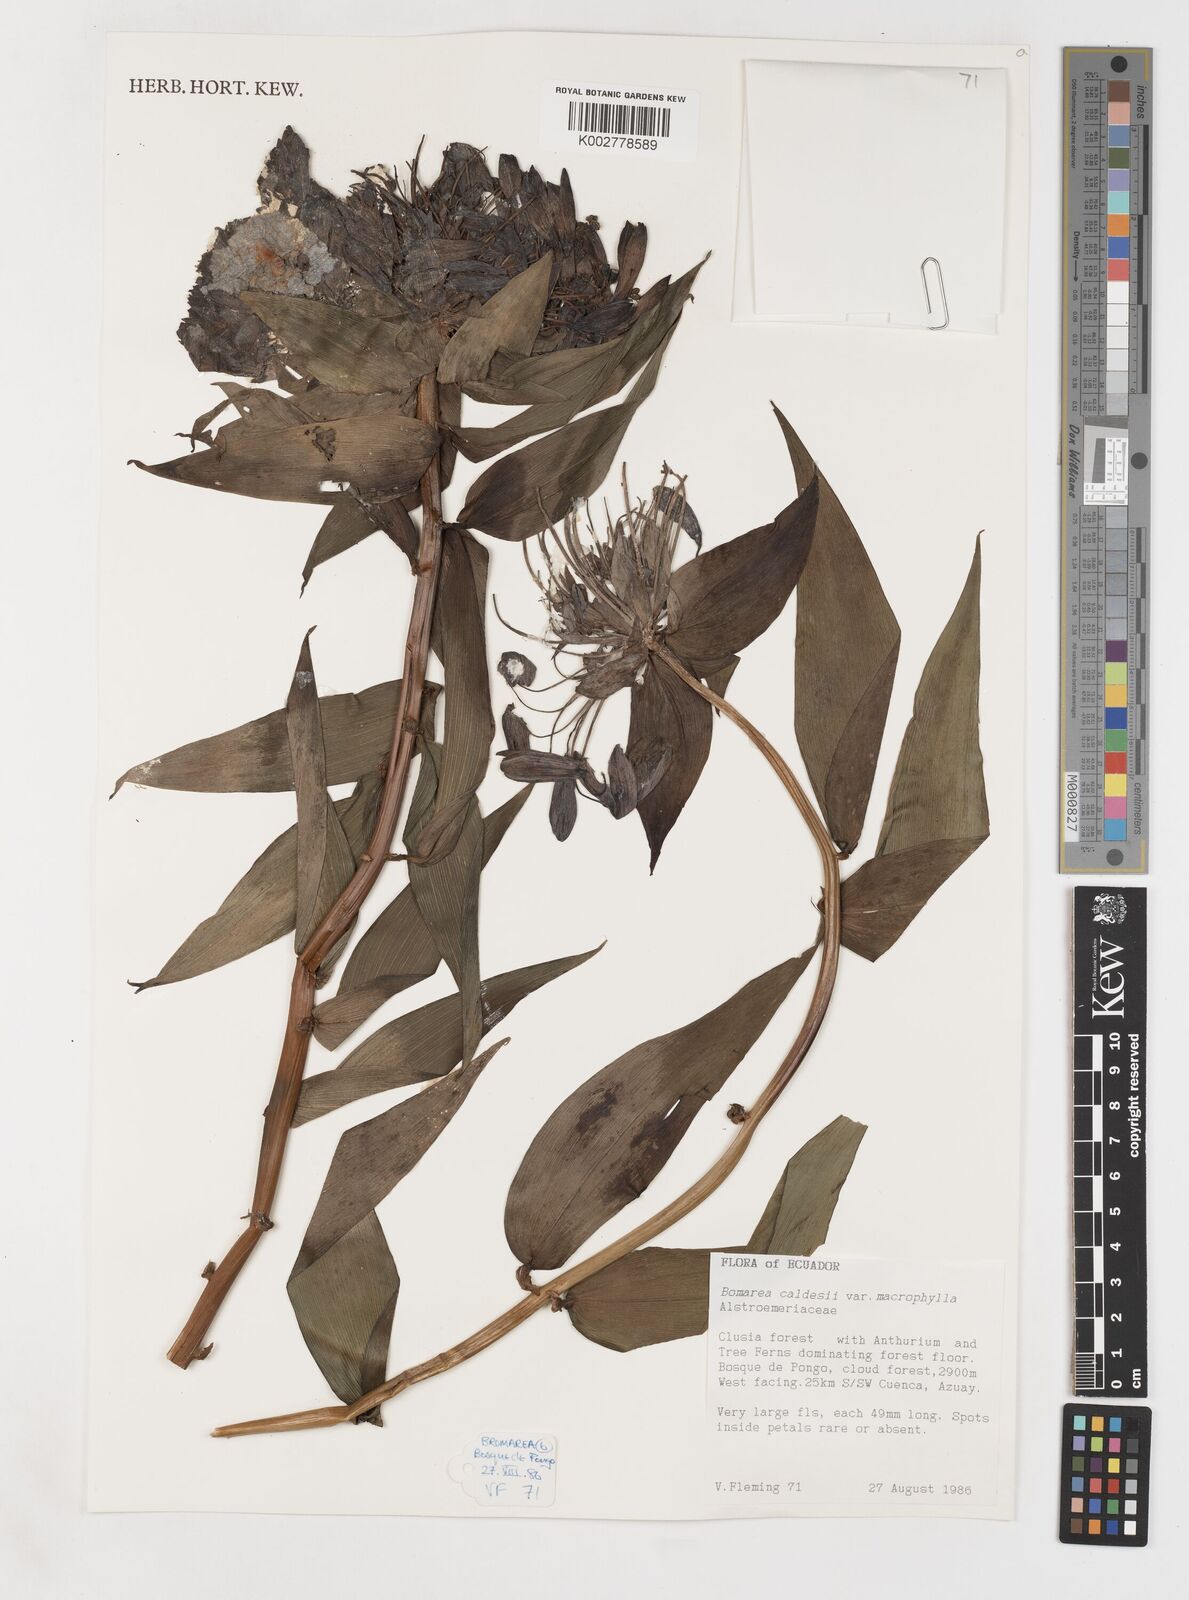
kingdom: Plantae
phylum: Tracheophyta
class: Liliopsida
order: Liliales
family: Alstroemeriaceae
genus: Bomarea
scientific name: Bomarea multiflora
